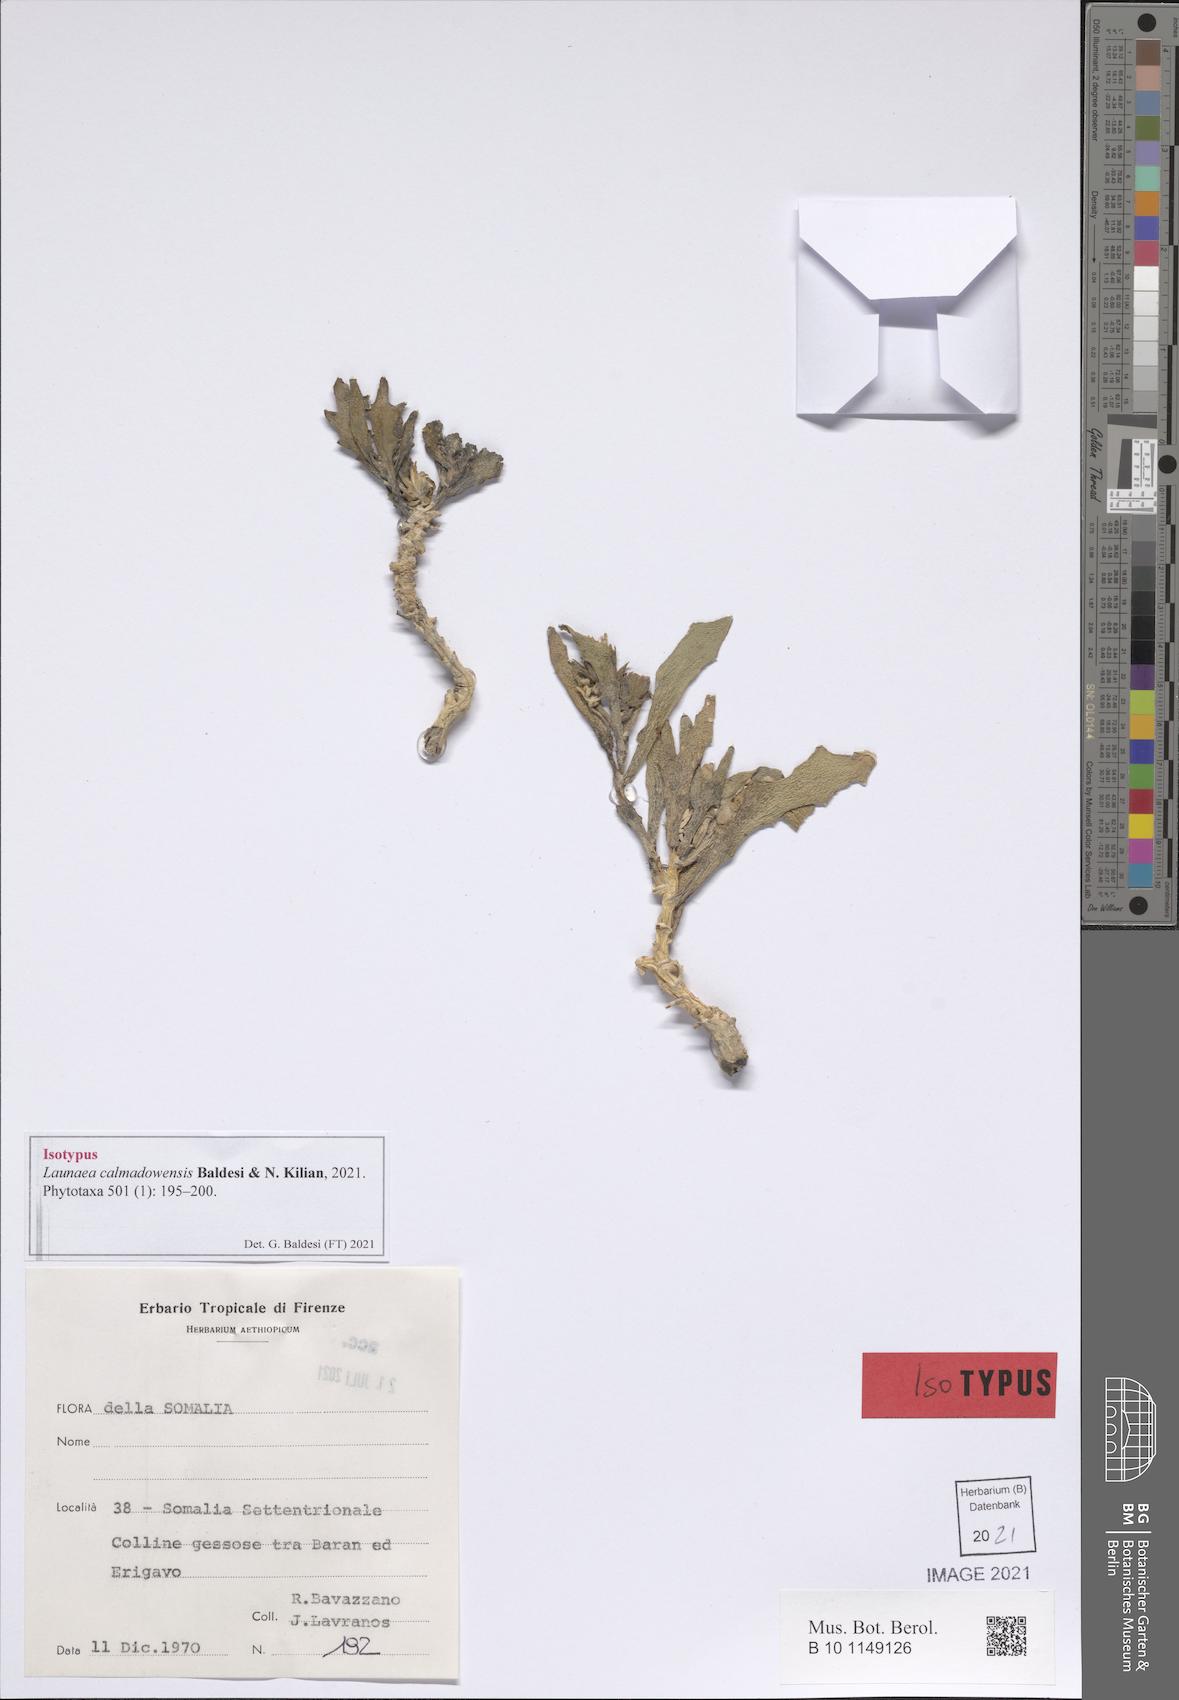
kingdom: Plantae
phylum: Tracheophyta
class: Magnoliopsida
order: Asterales
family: Asteraceae
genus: Launaea
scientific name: Launaea calmadowensis
